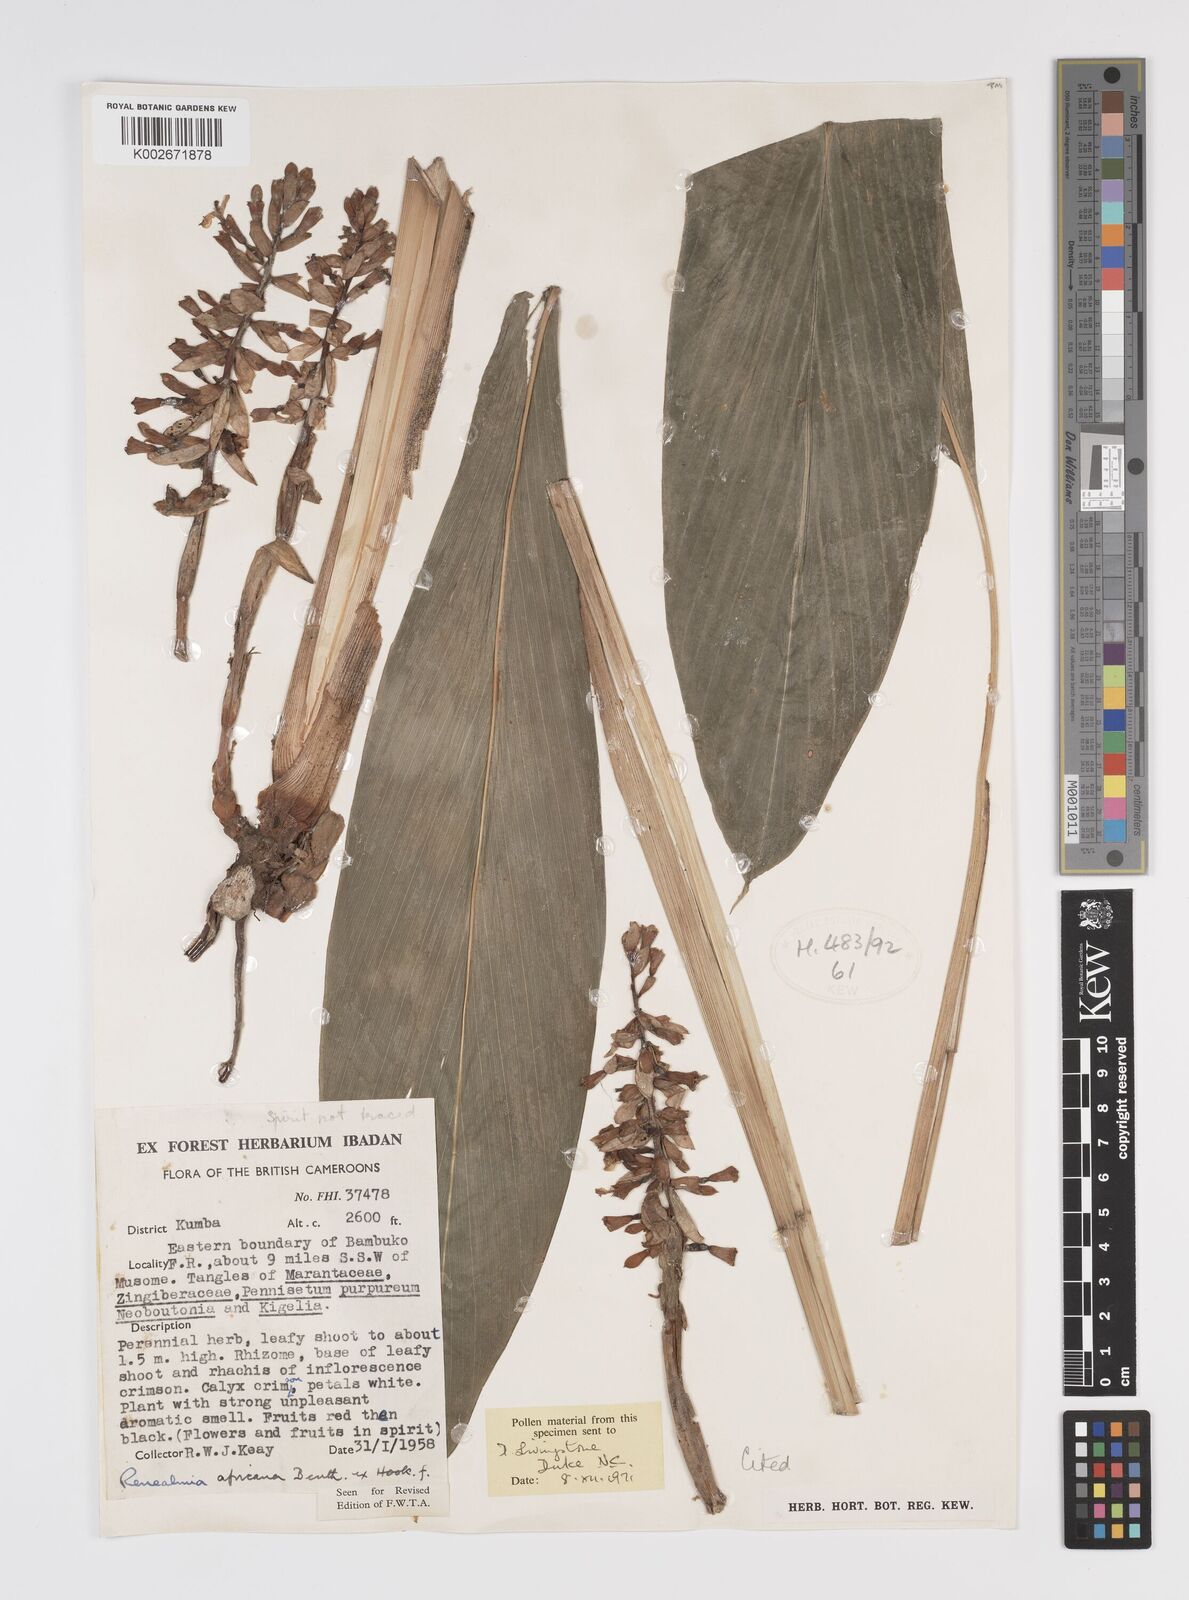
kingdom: Plantae
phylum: Tracheophyta
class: Liliopsida
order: Zingiberales
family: Zingiberaceae
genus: Renealmia
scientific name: Renealmia africana
